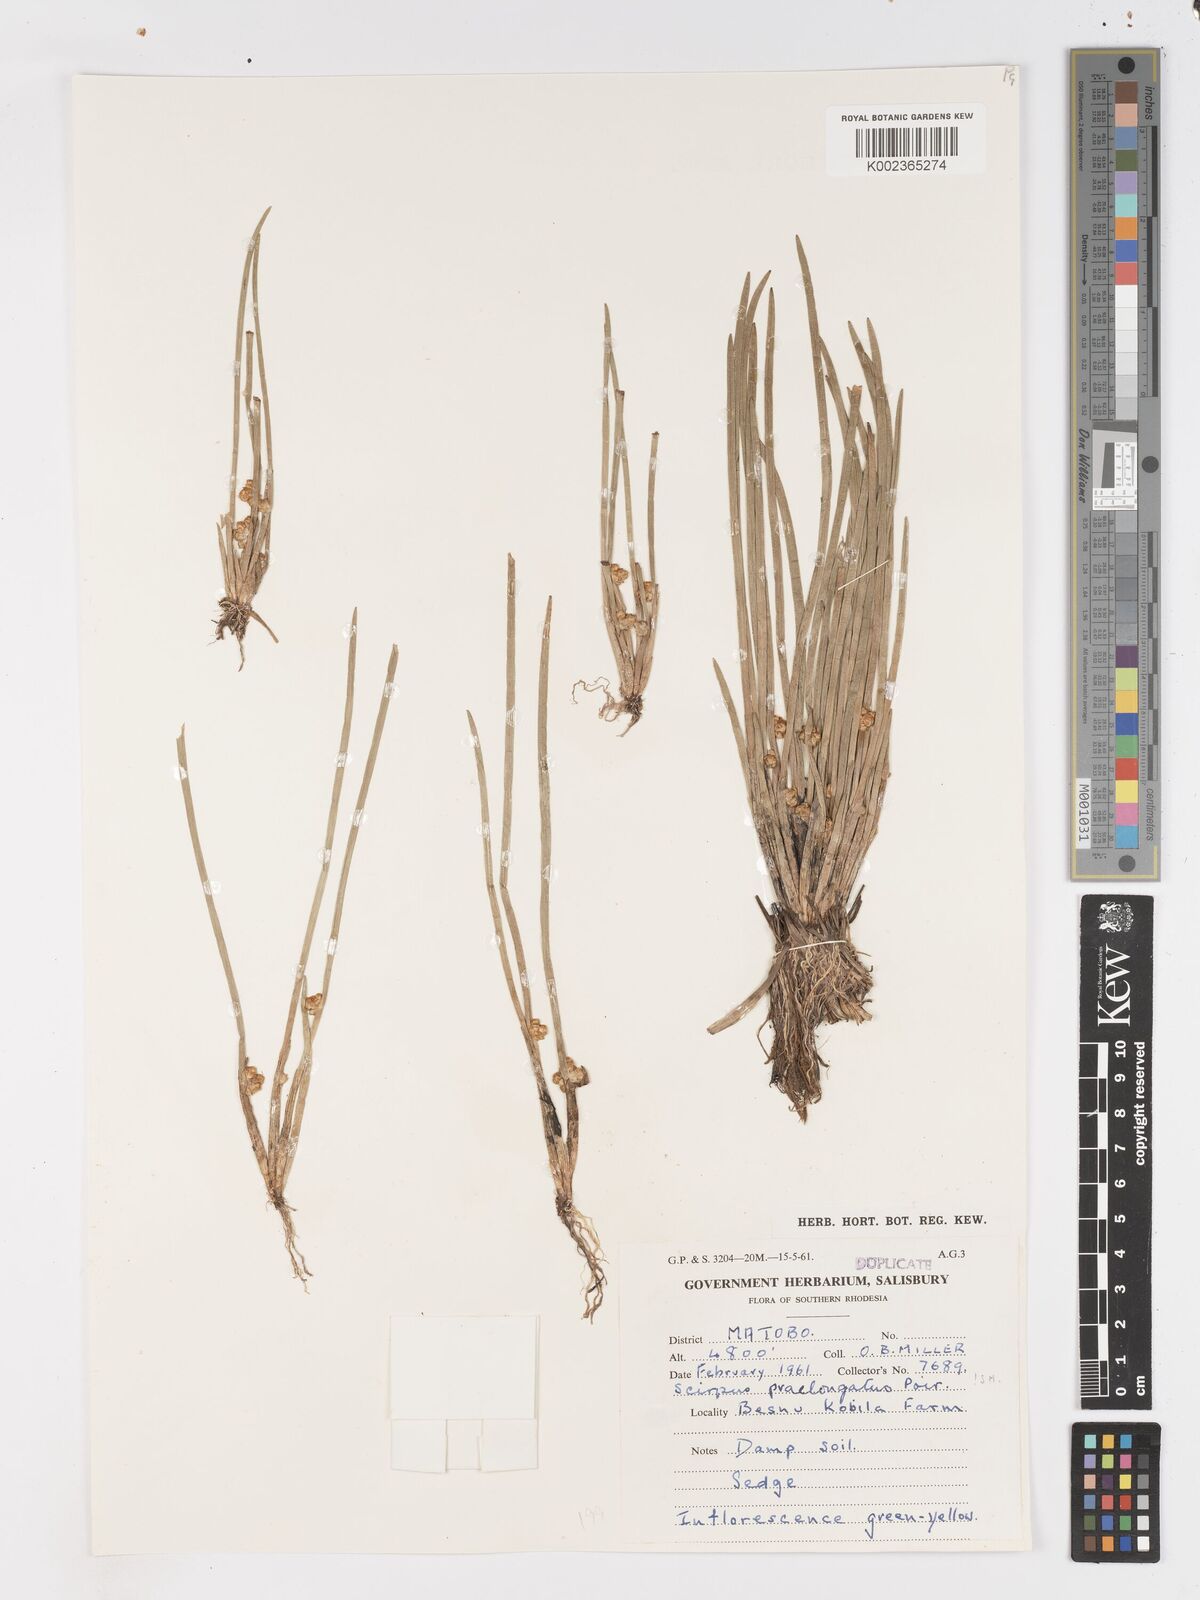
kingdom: Plantae
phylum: Tracheophyta
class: Liliopsida
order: Poales
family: Cyperaceae
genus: Schoenoplectiella
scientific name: Schoenoplectiella senegalensis
